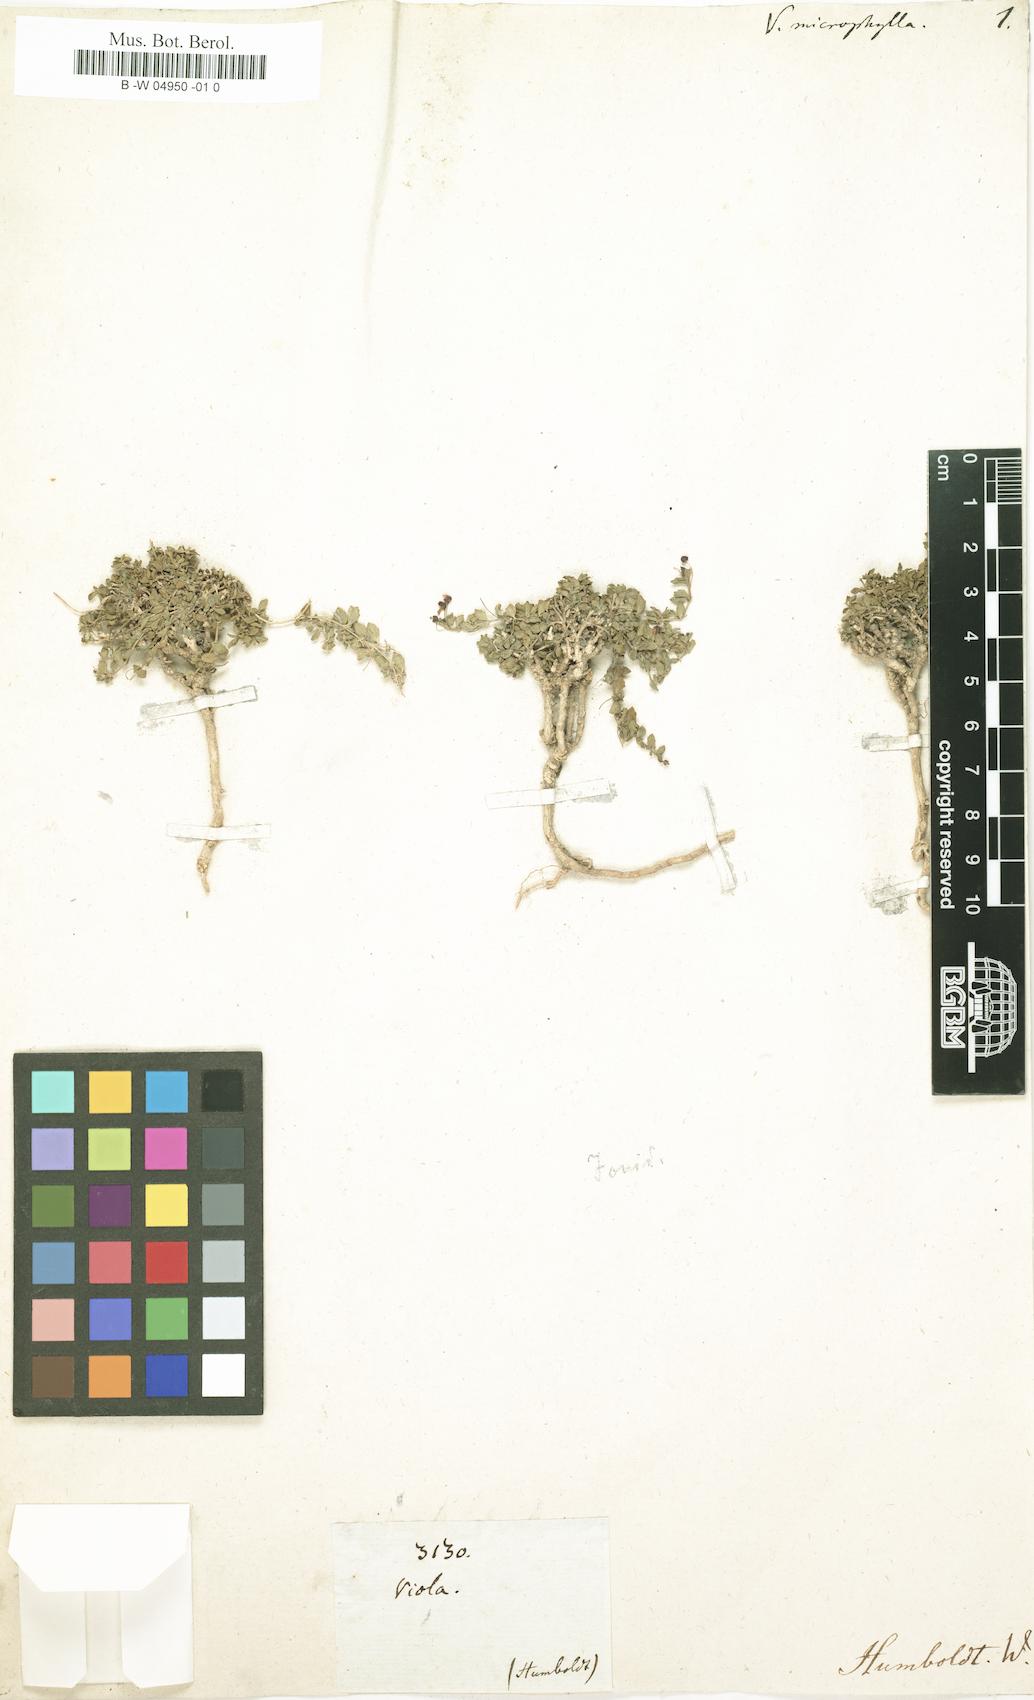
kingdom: Plantae
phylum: Tracheophyta
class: Magnoliopsida
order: Malpighiales
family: Violaceae
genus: Viola
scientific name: Viola alpina
